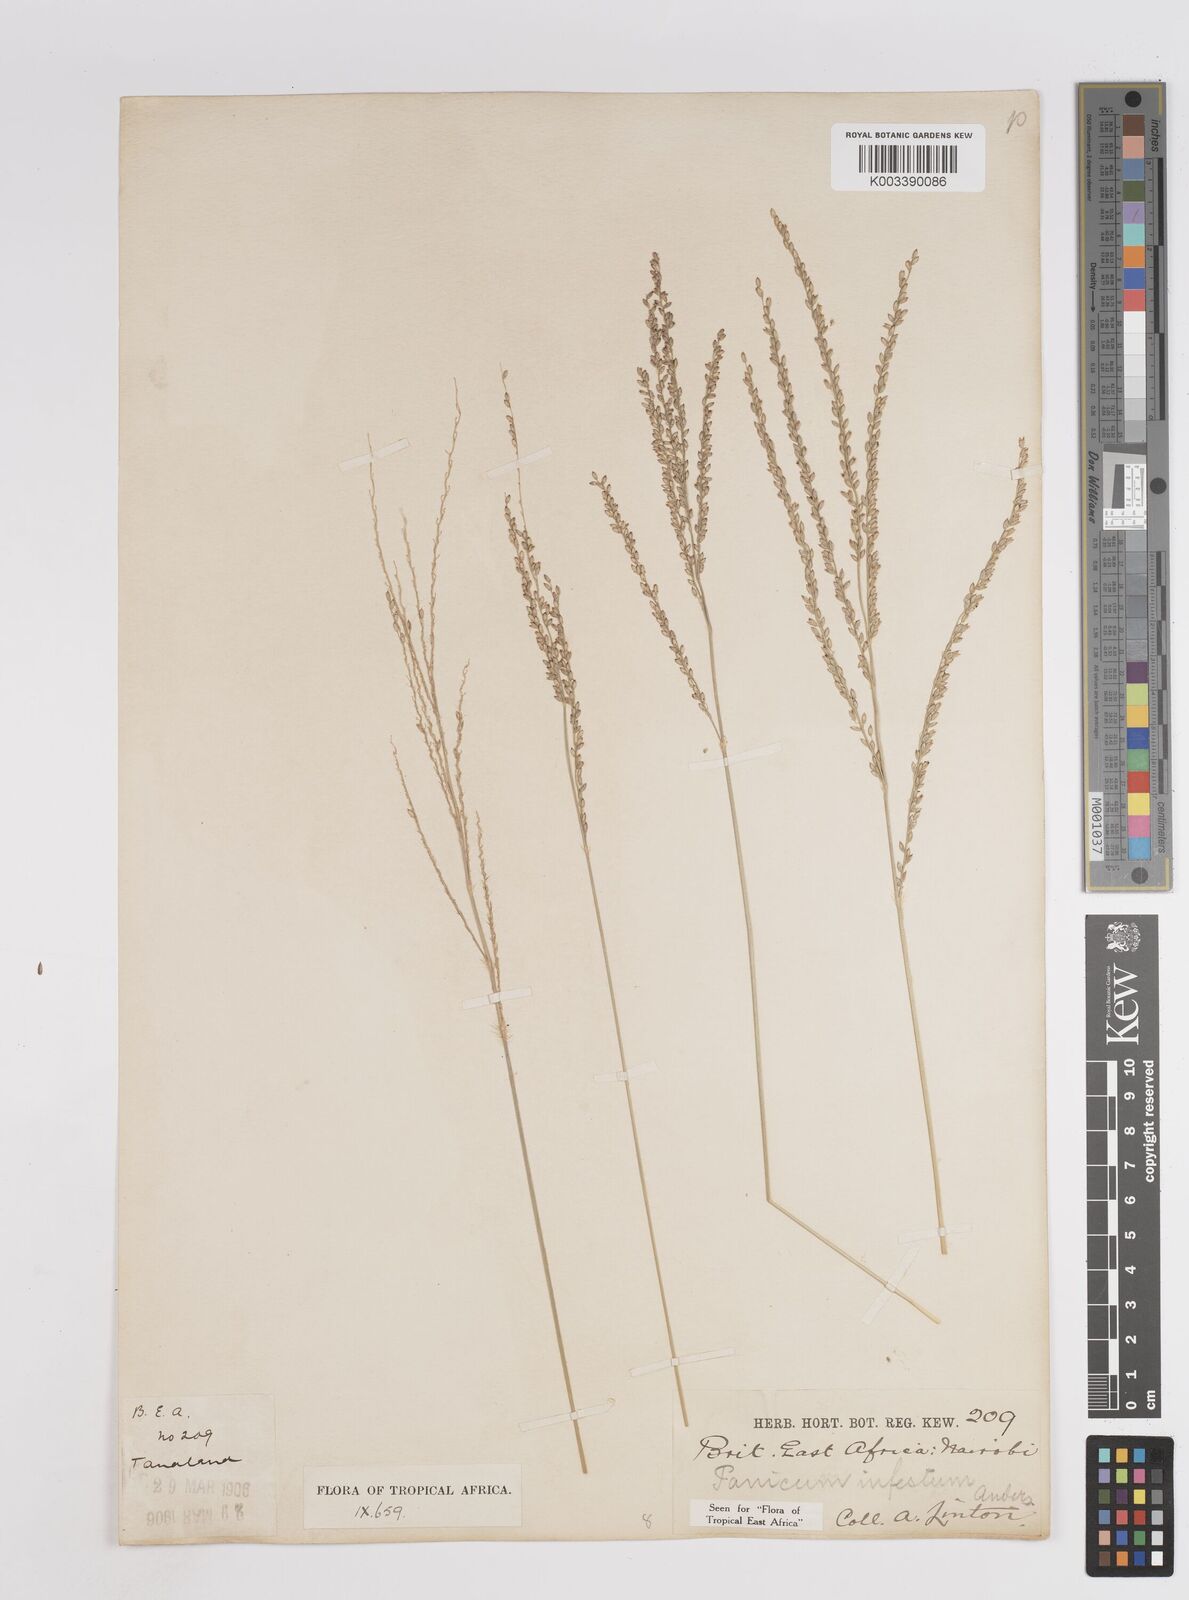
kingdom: Plantae
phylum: Tracheophyta
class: Liliopsida
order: Poales
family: Poaceae
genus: Megathyrsus
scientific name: Megathyrsus infestus
